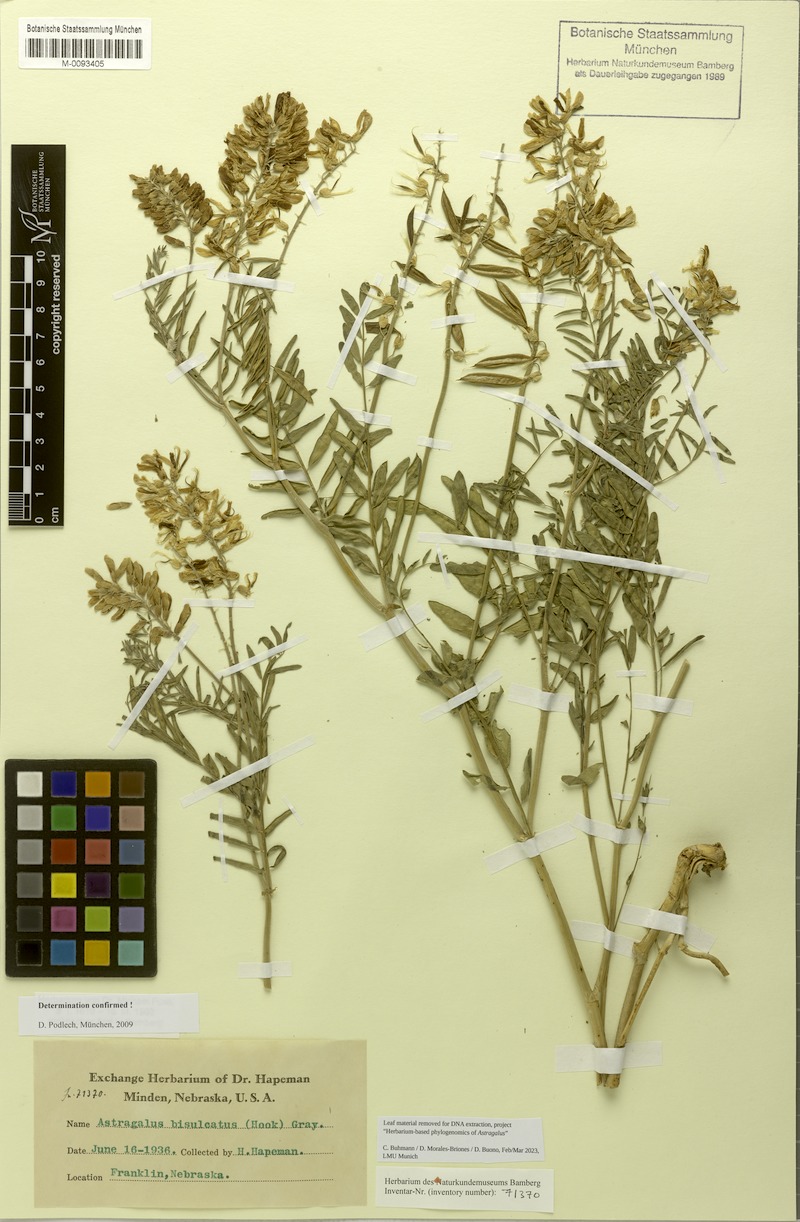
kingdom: Plantae
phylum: Tracheophyta
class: Magnoliopsida
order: Fabales
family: Fabaceae
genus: Astragalus
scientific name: Astragalus bisulcatus
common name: Two-groove milk-vetch
